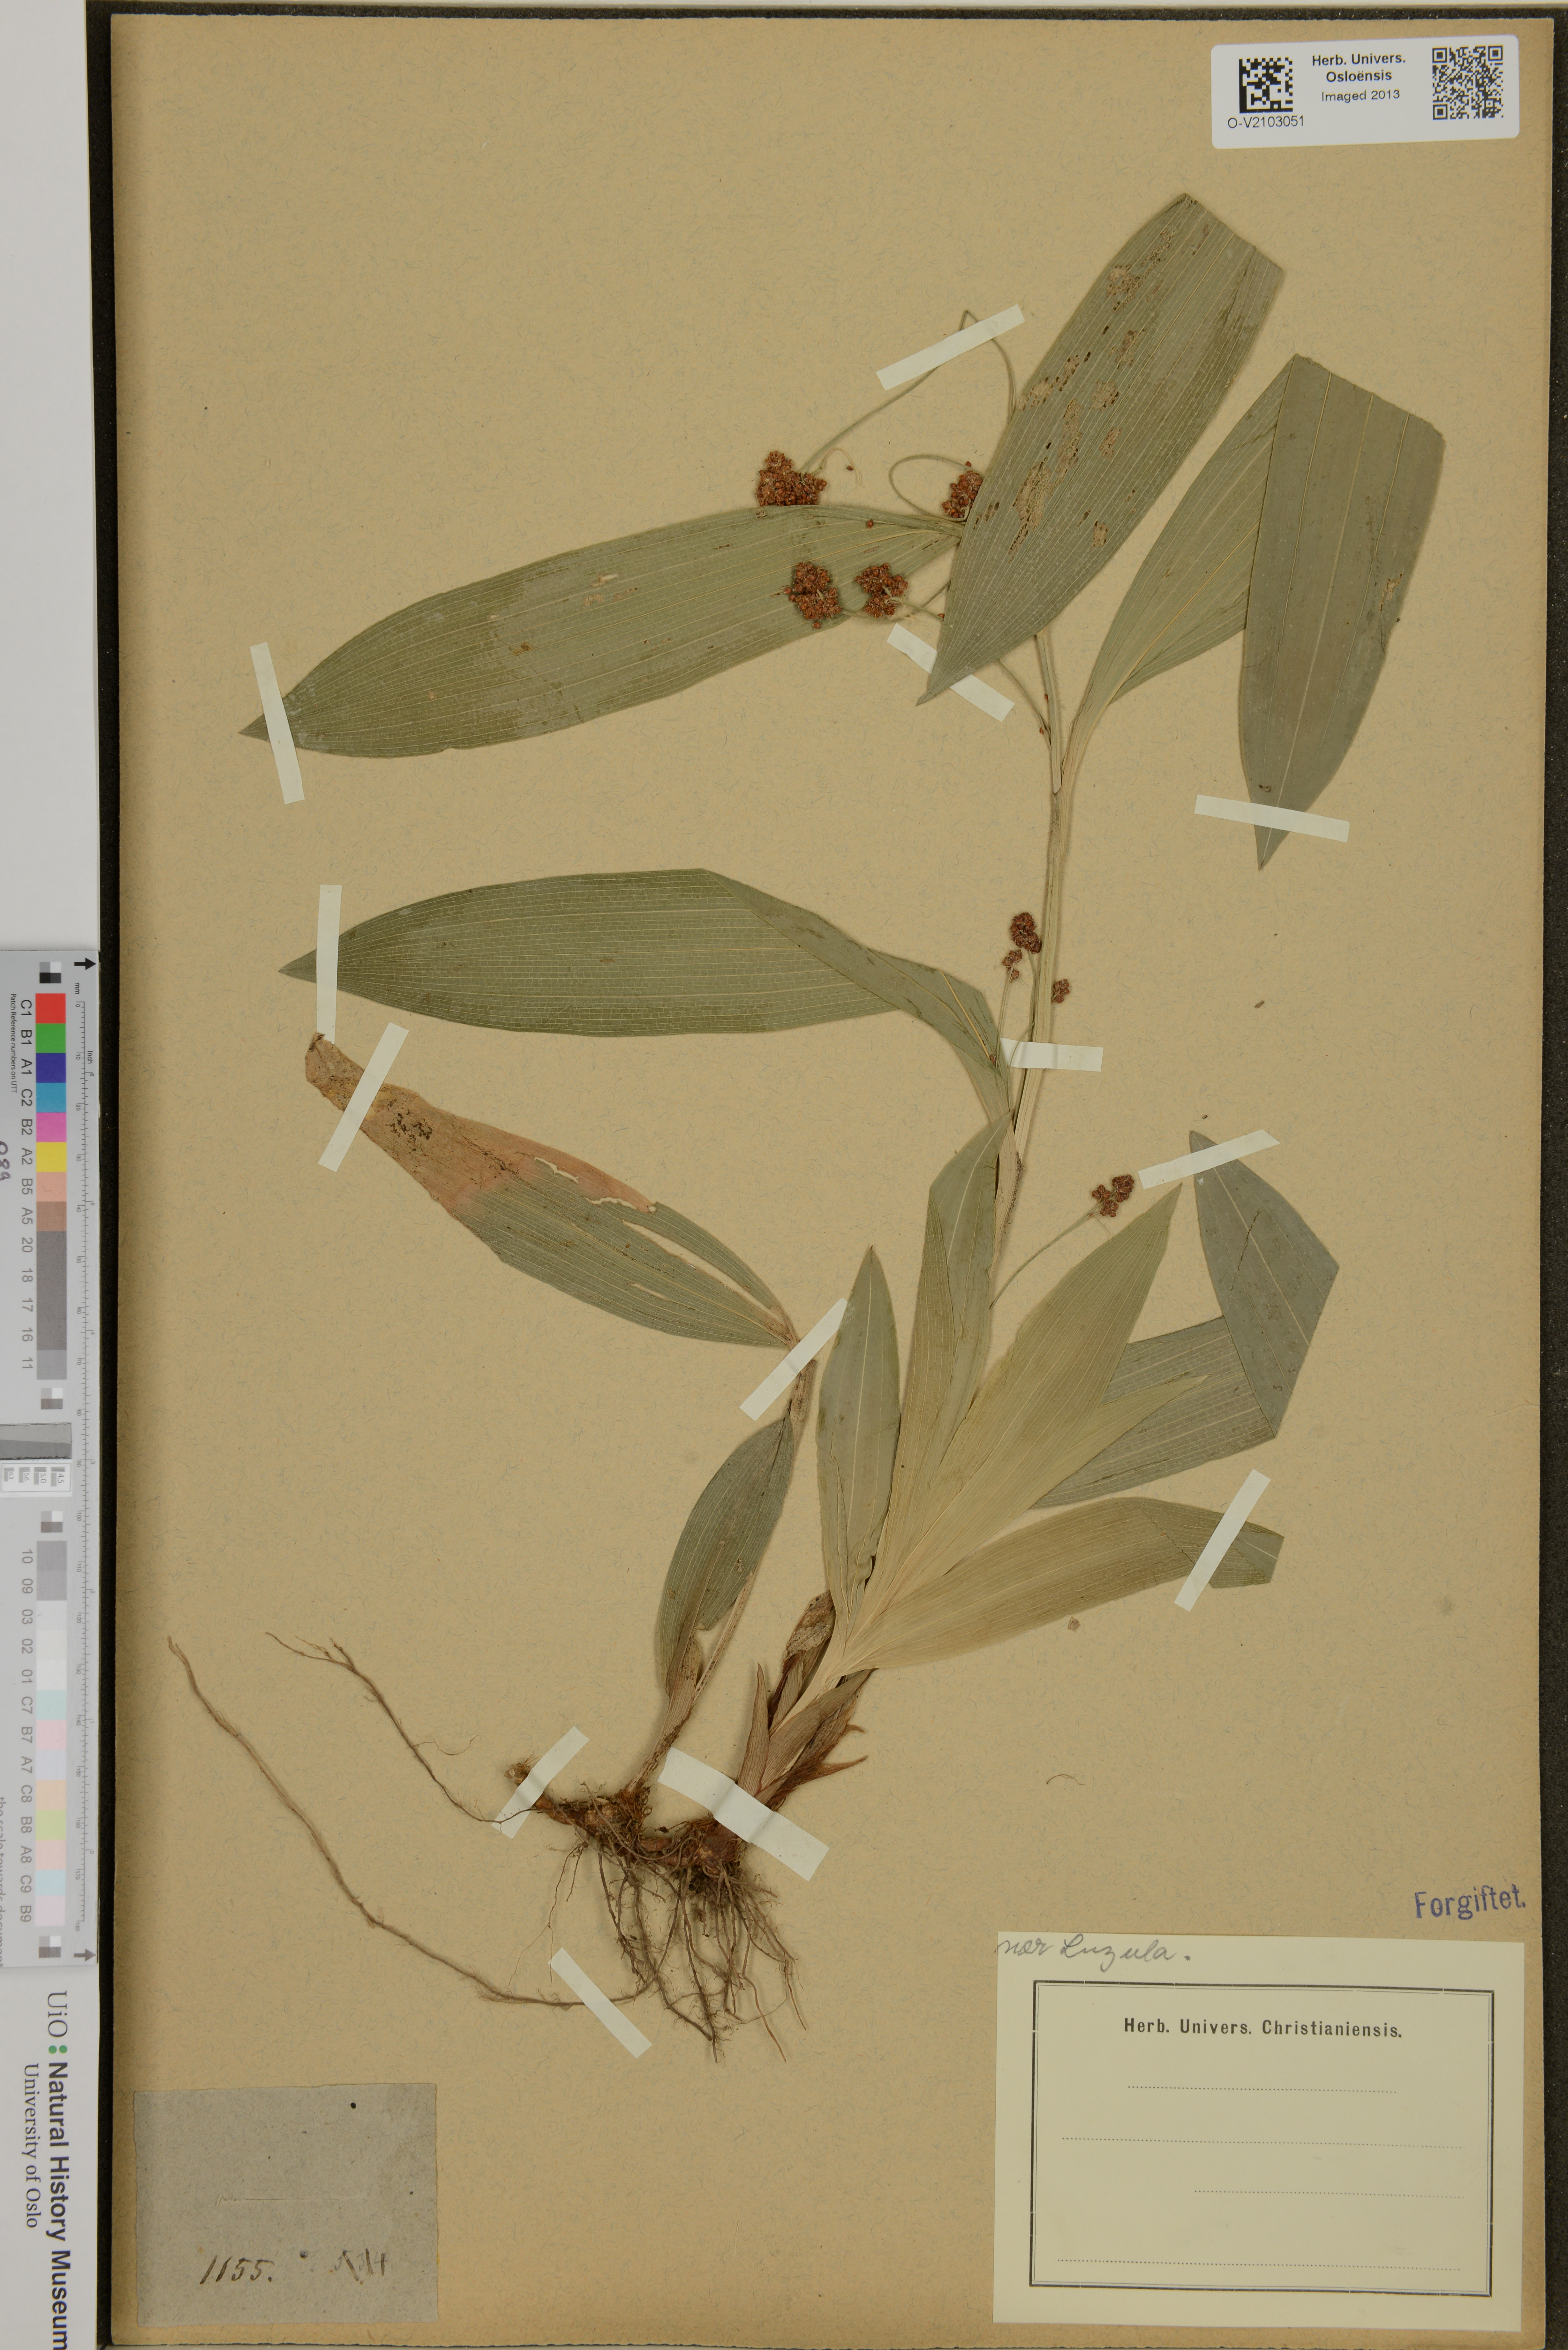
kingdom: Plantae
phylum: Tracheophyta
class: Liliopsida
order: Poales
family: Juncaceae
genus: Luzula
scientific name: Luzula
